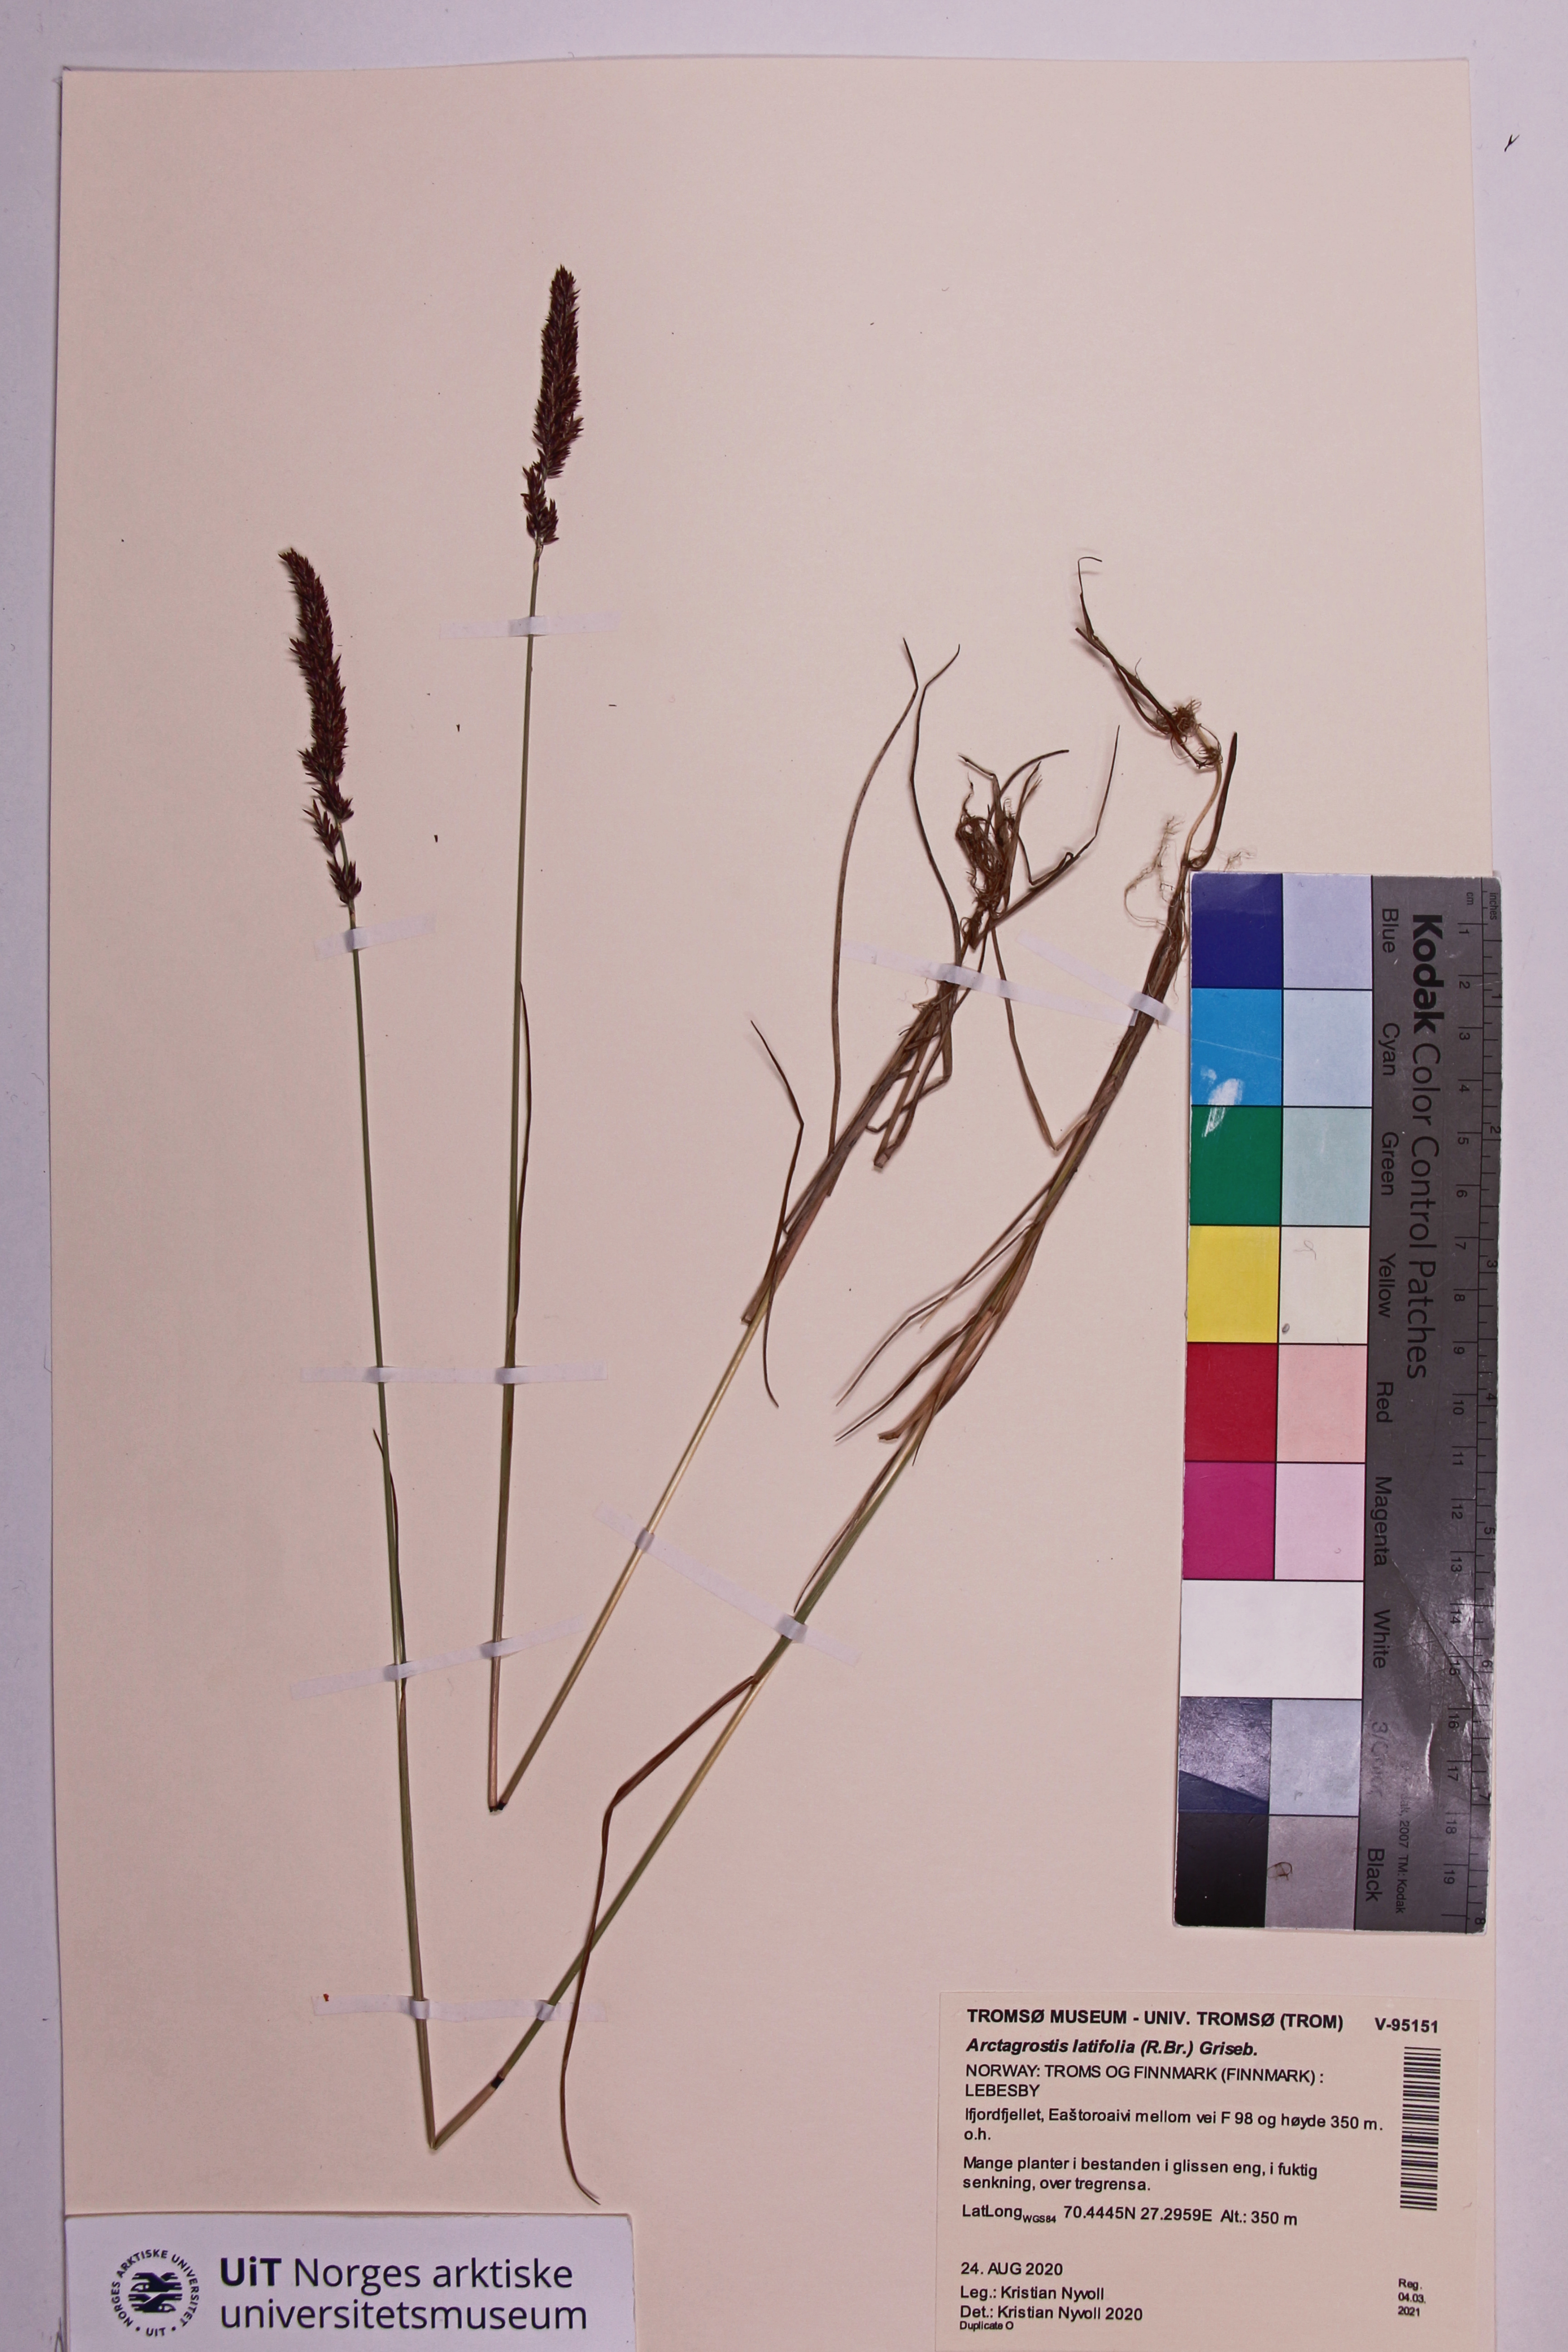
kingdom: Plantae
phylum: Tracheophyta
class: Liliopsida
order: Poales
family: Poaceae
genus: Calamagrostis
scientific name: Calamagrostis stricta
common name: Narrow small-reed
